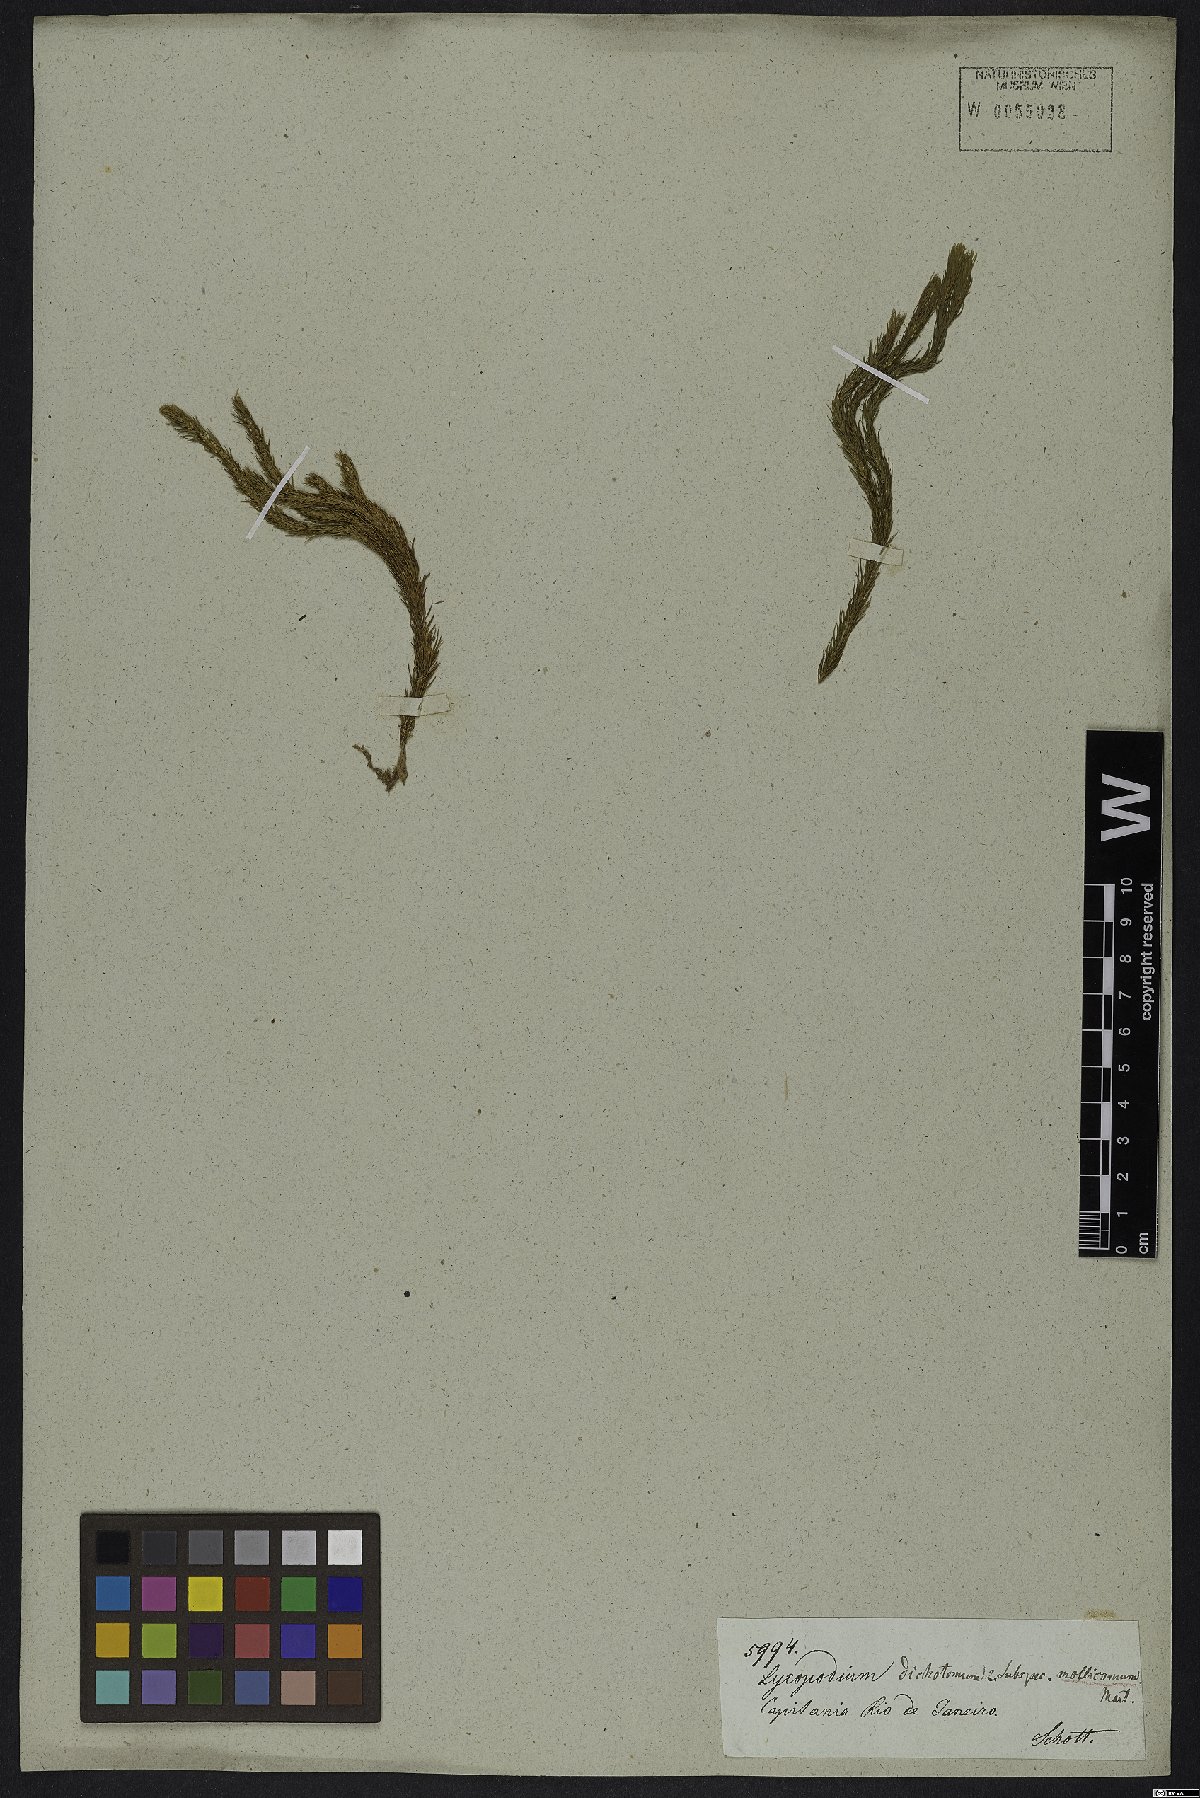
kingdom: Plantae
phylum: Tracheophyta
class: Lycopodiopsida
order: Lycopodiales
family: Lycopodiaceae
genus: Phlegmariurus
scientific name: Phlegmariurus mollicomus
